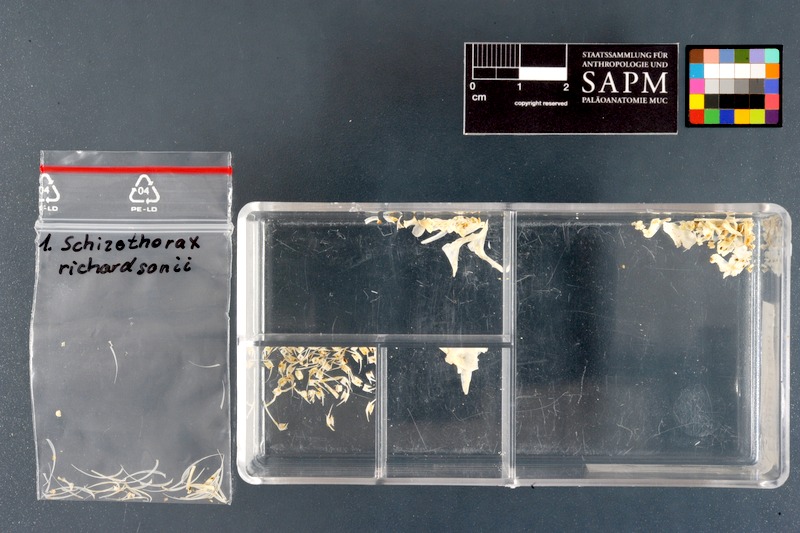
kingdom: Animalia
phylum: Chordata
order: Cypriniformes
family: Cyprinidae
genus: Schizothorax
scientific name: Schizothorax richardsonii
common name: Alawan snowtrout
